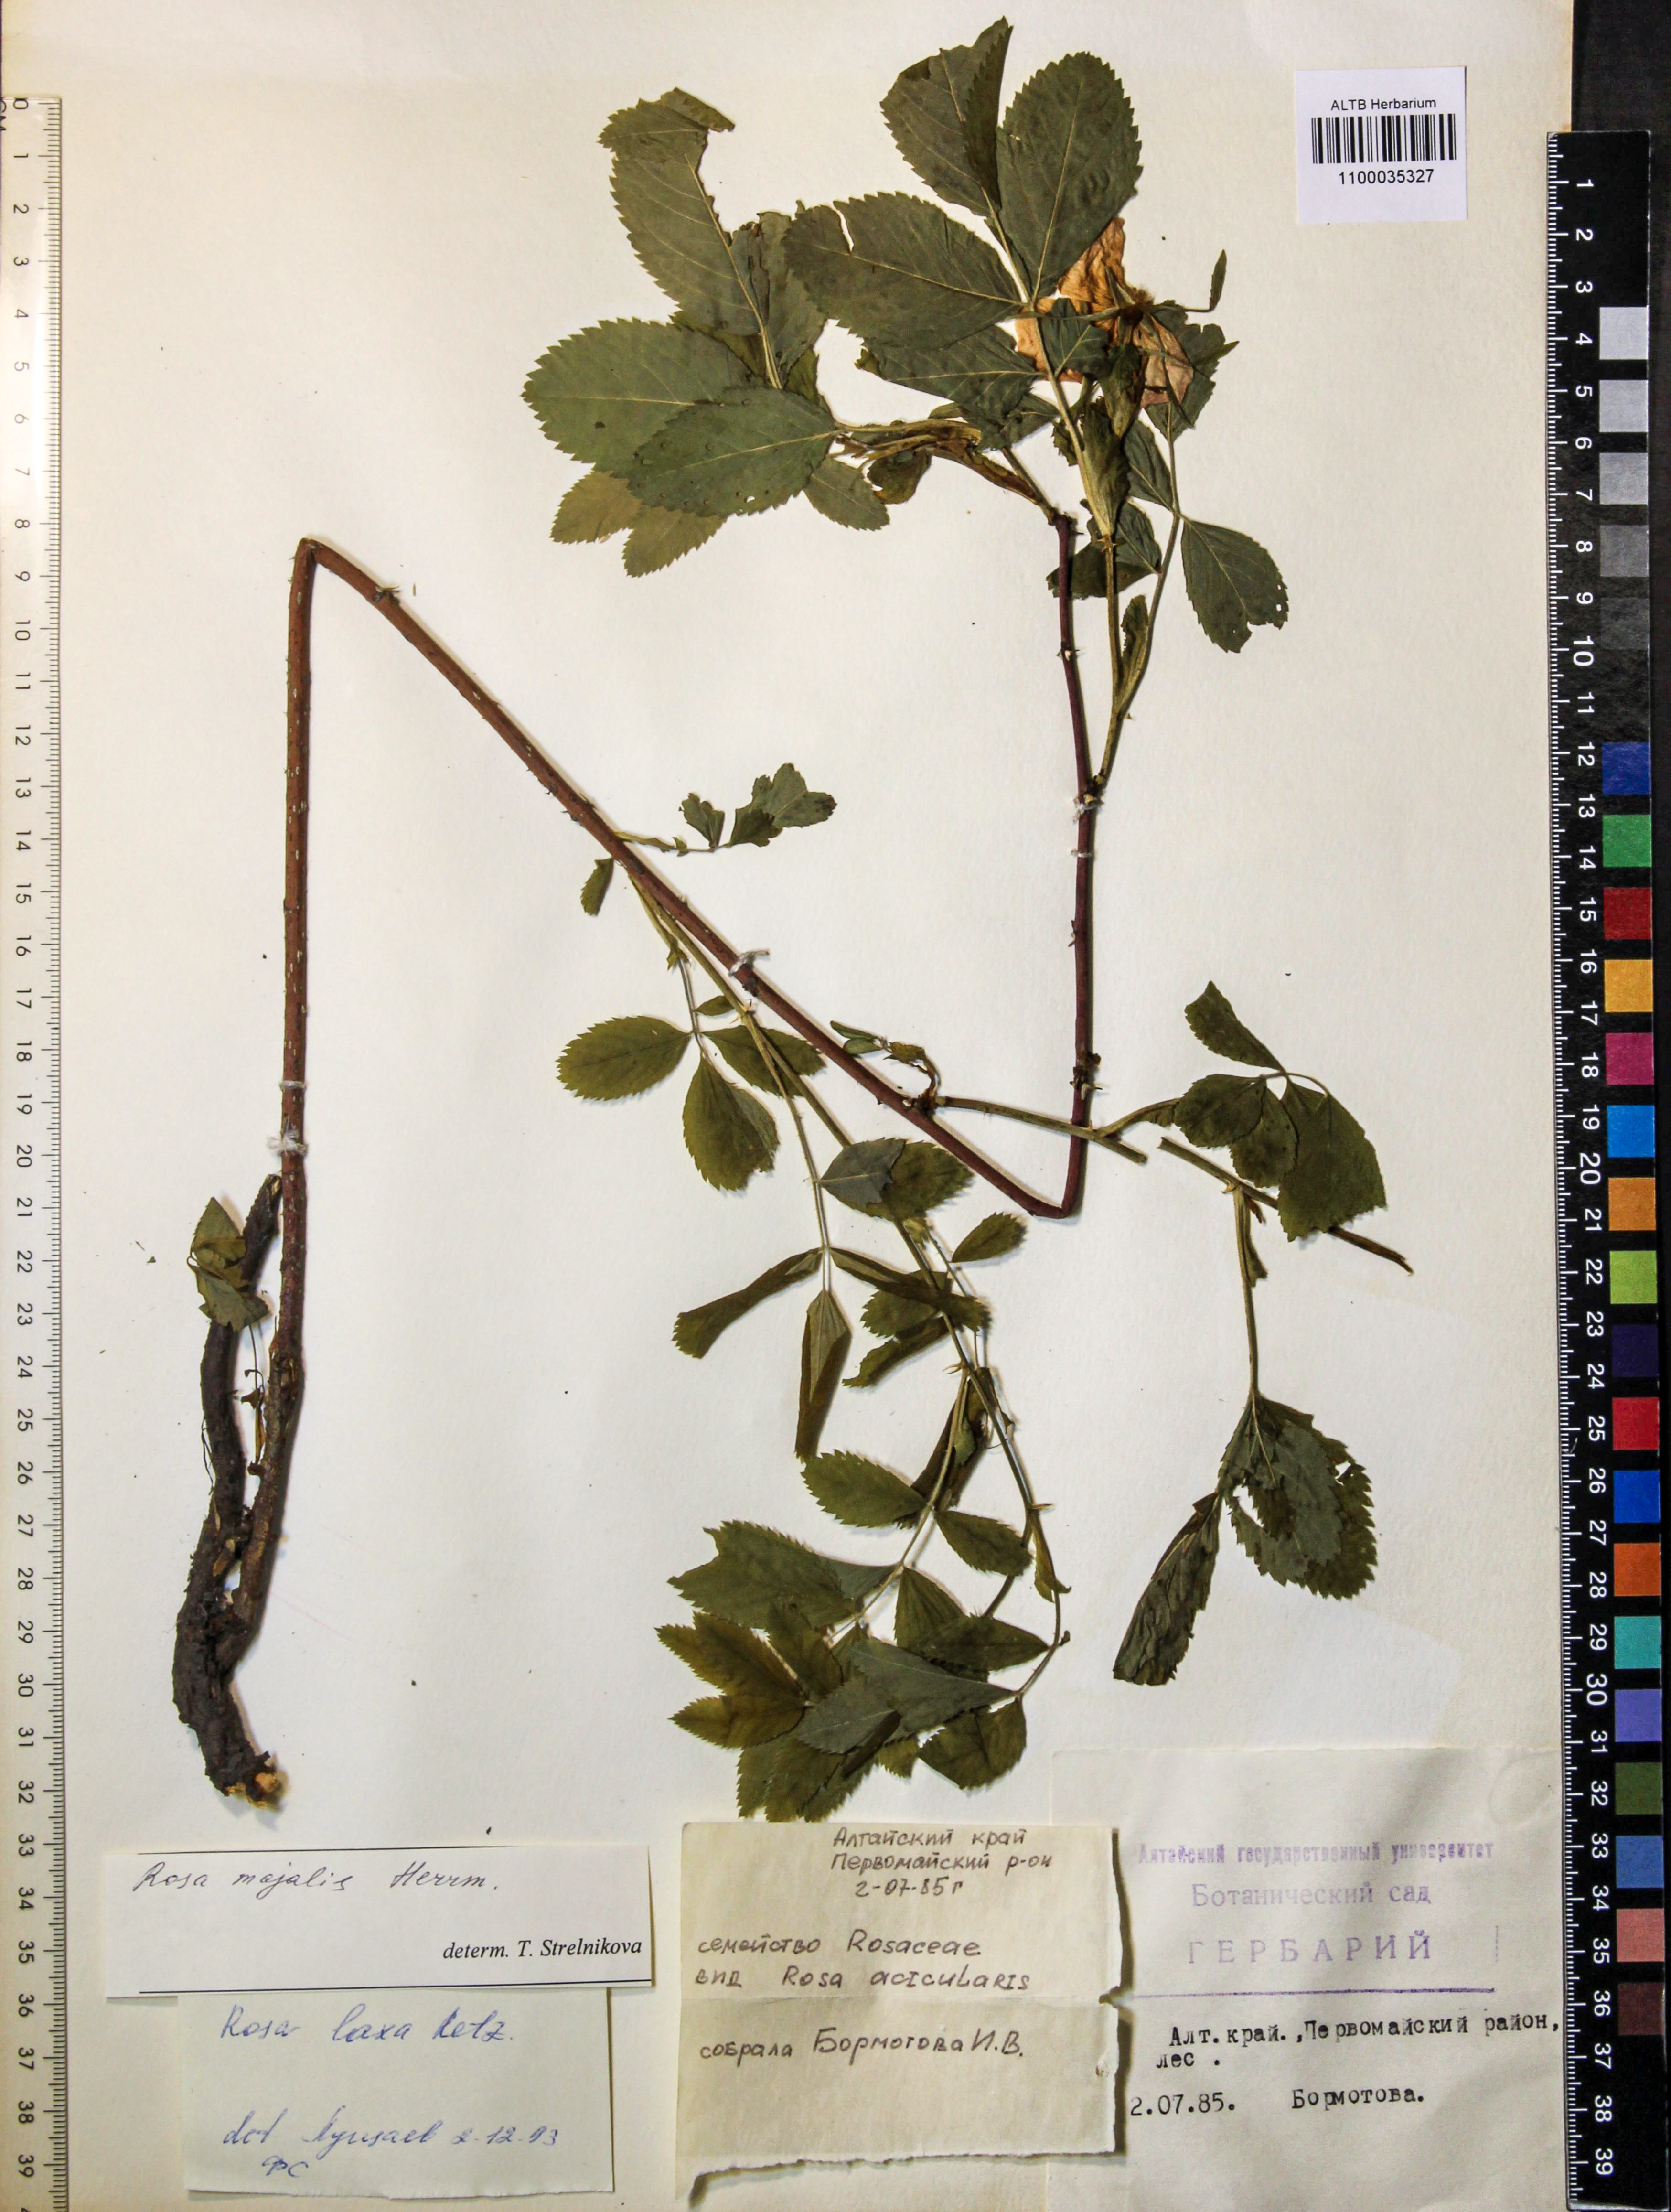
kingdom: Plantae
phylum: Tracheophyta
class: Magnoliopsida
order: Rosales
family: Rosaceae
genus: Rosa
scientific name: Rosa majalis
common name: Cinnamon rose
